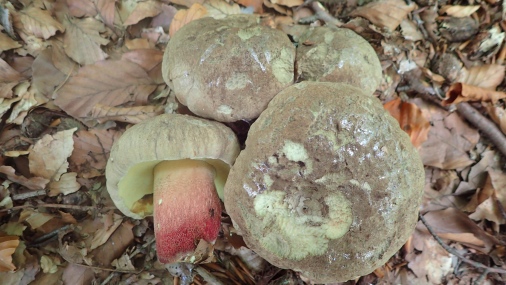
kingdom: Fungi
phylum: Basidiomycota
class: Agaricomycetes
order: Boletales
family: Boletaceae
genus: Caloboletus
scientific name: Caloboletus calopus
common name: skønfodet rørhat
